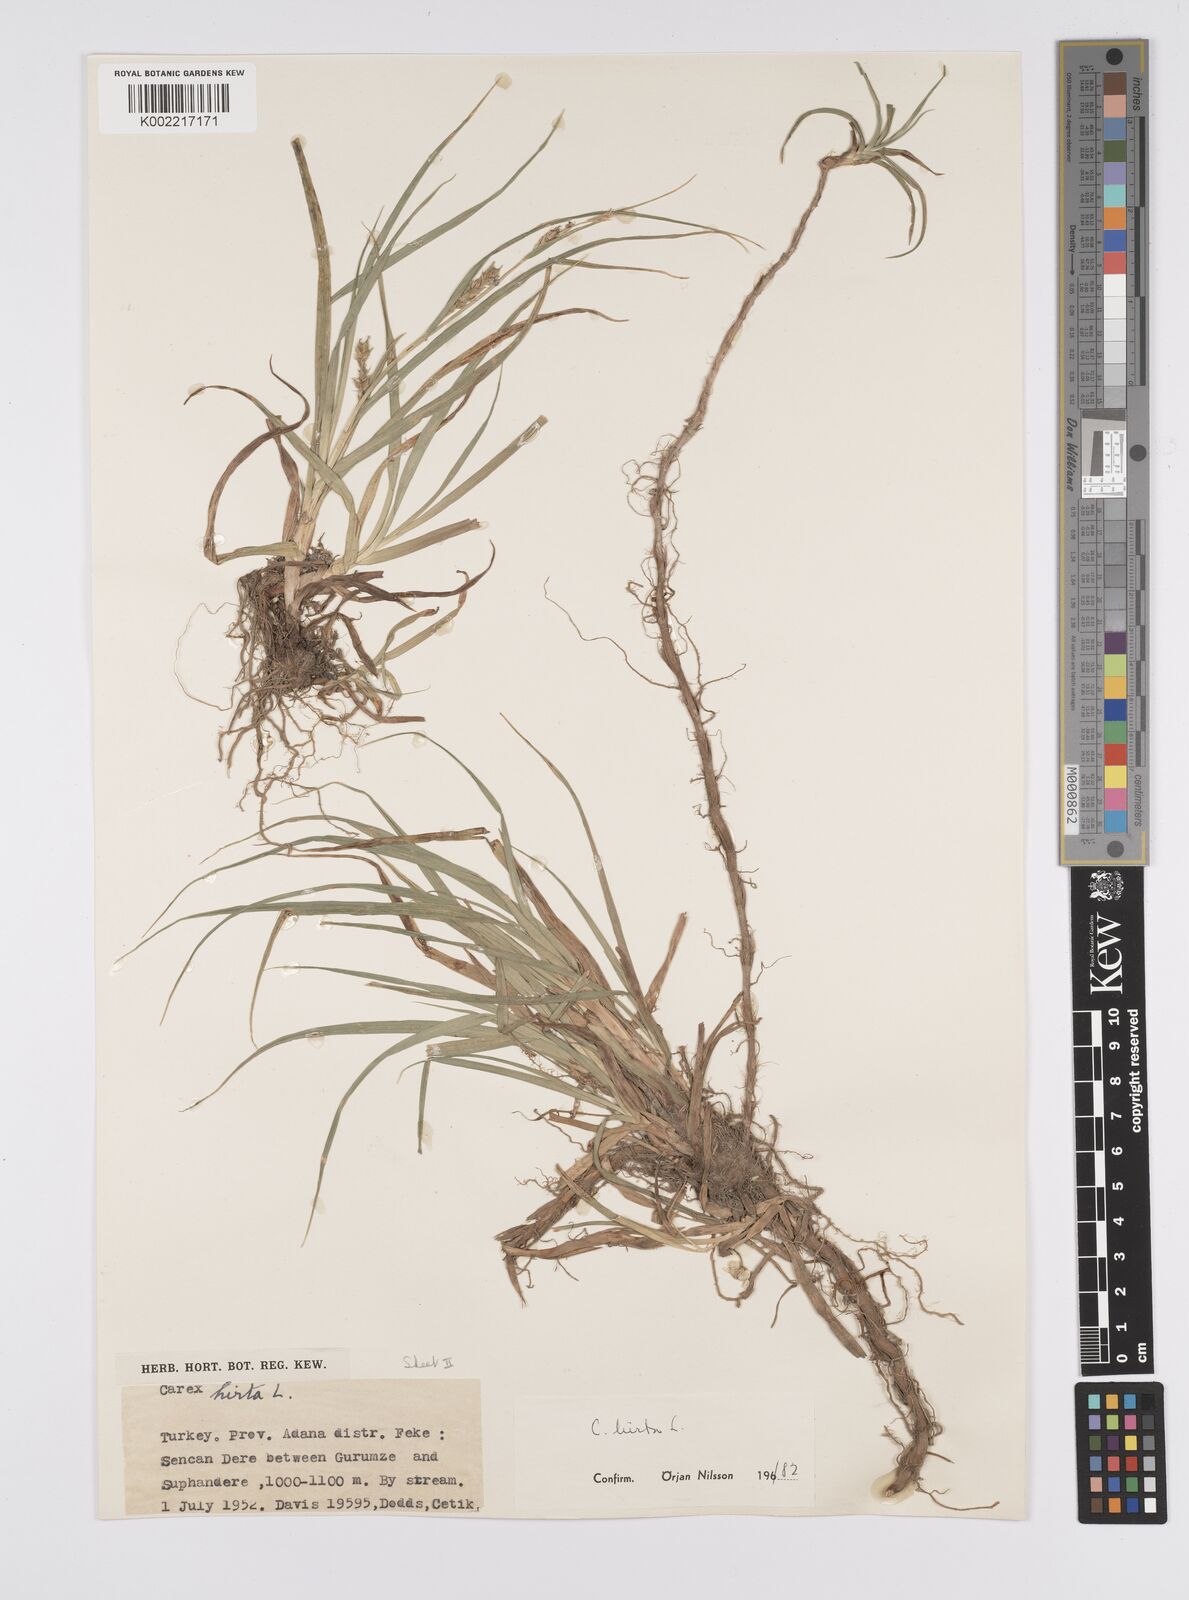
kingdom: Plantae
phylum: Tracheophyta
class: Liliopsida
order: Poales
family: Cyperaceae
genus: Carex
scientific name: Carex hirta
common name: Hairy sedge
